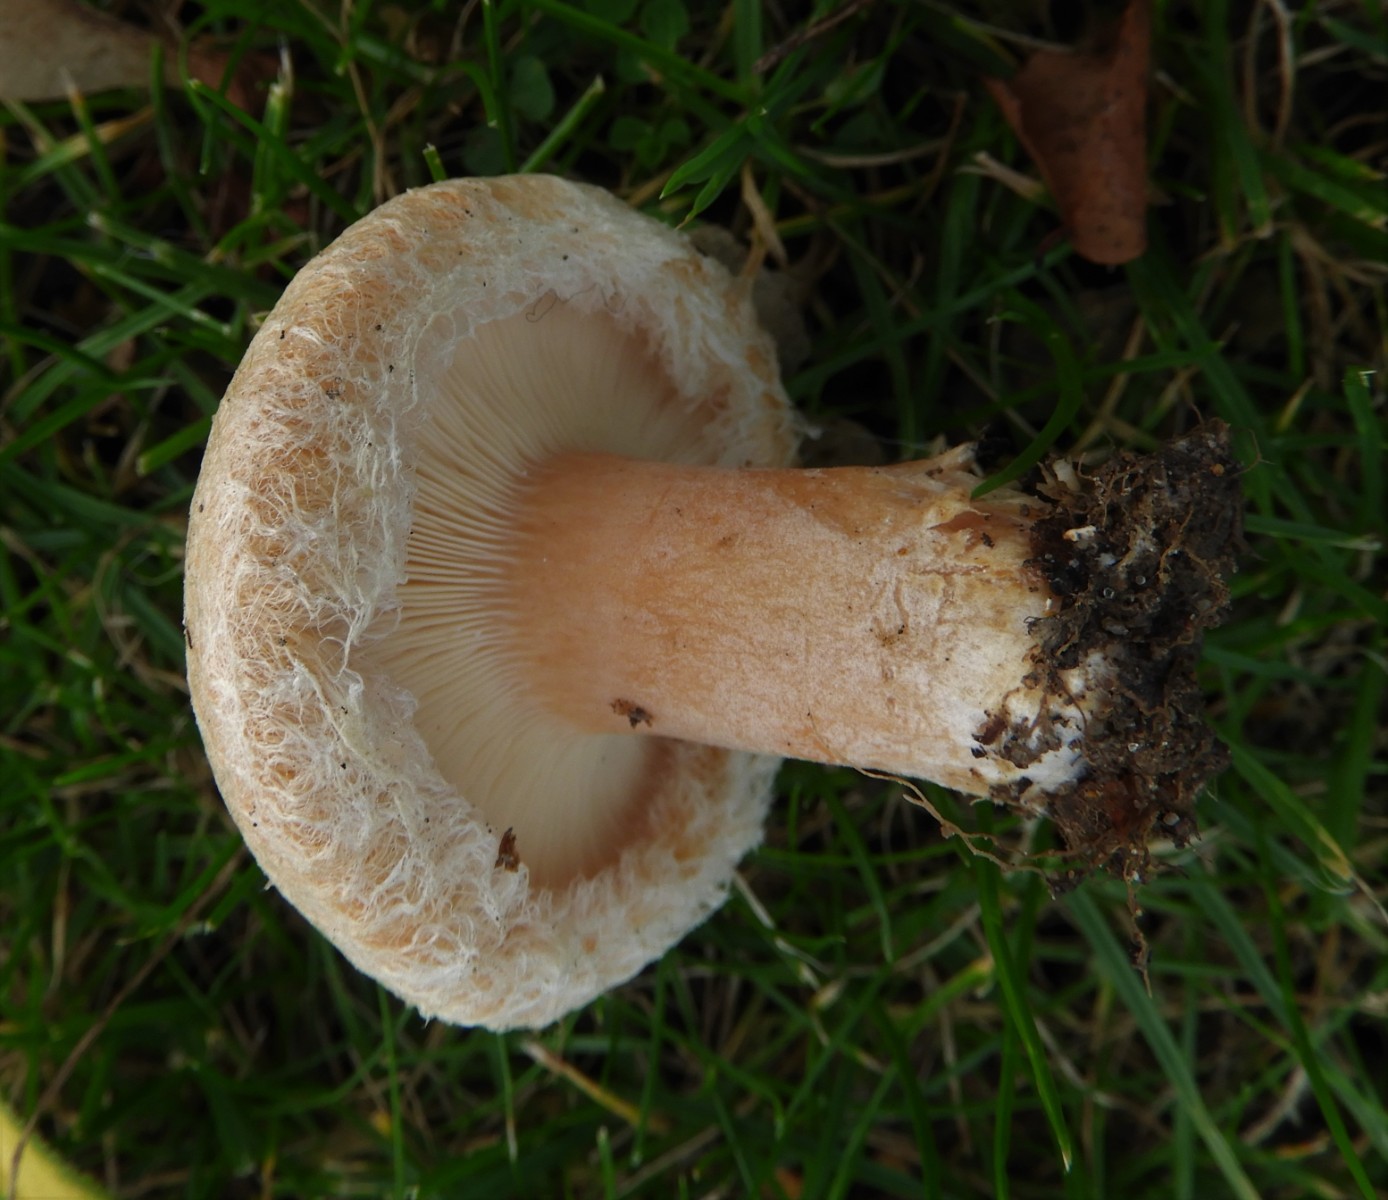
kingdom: Fungi
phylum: Basidiomycota
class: Agaricomycetes
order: Russulales
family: Russulaceae
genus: Lactarius
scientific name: Lactarius pubescens
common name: dunet mælkehat
